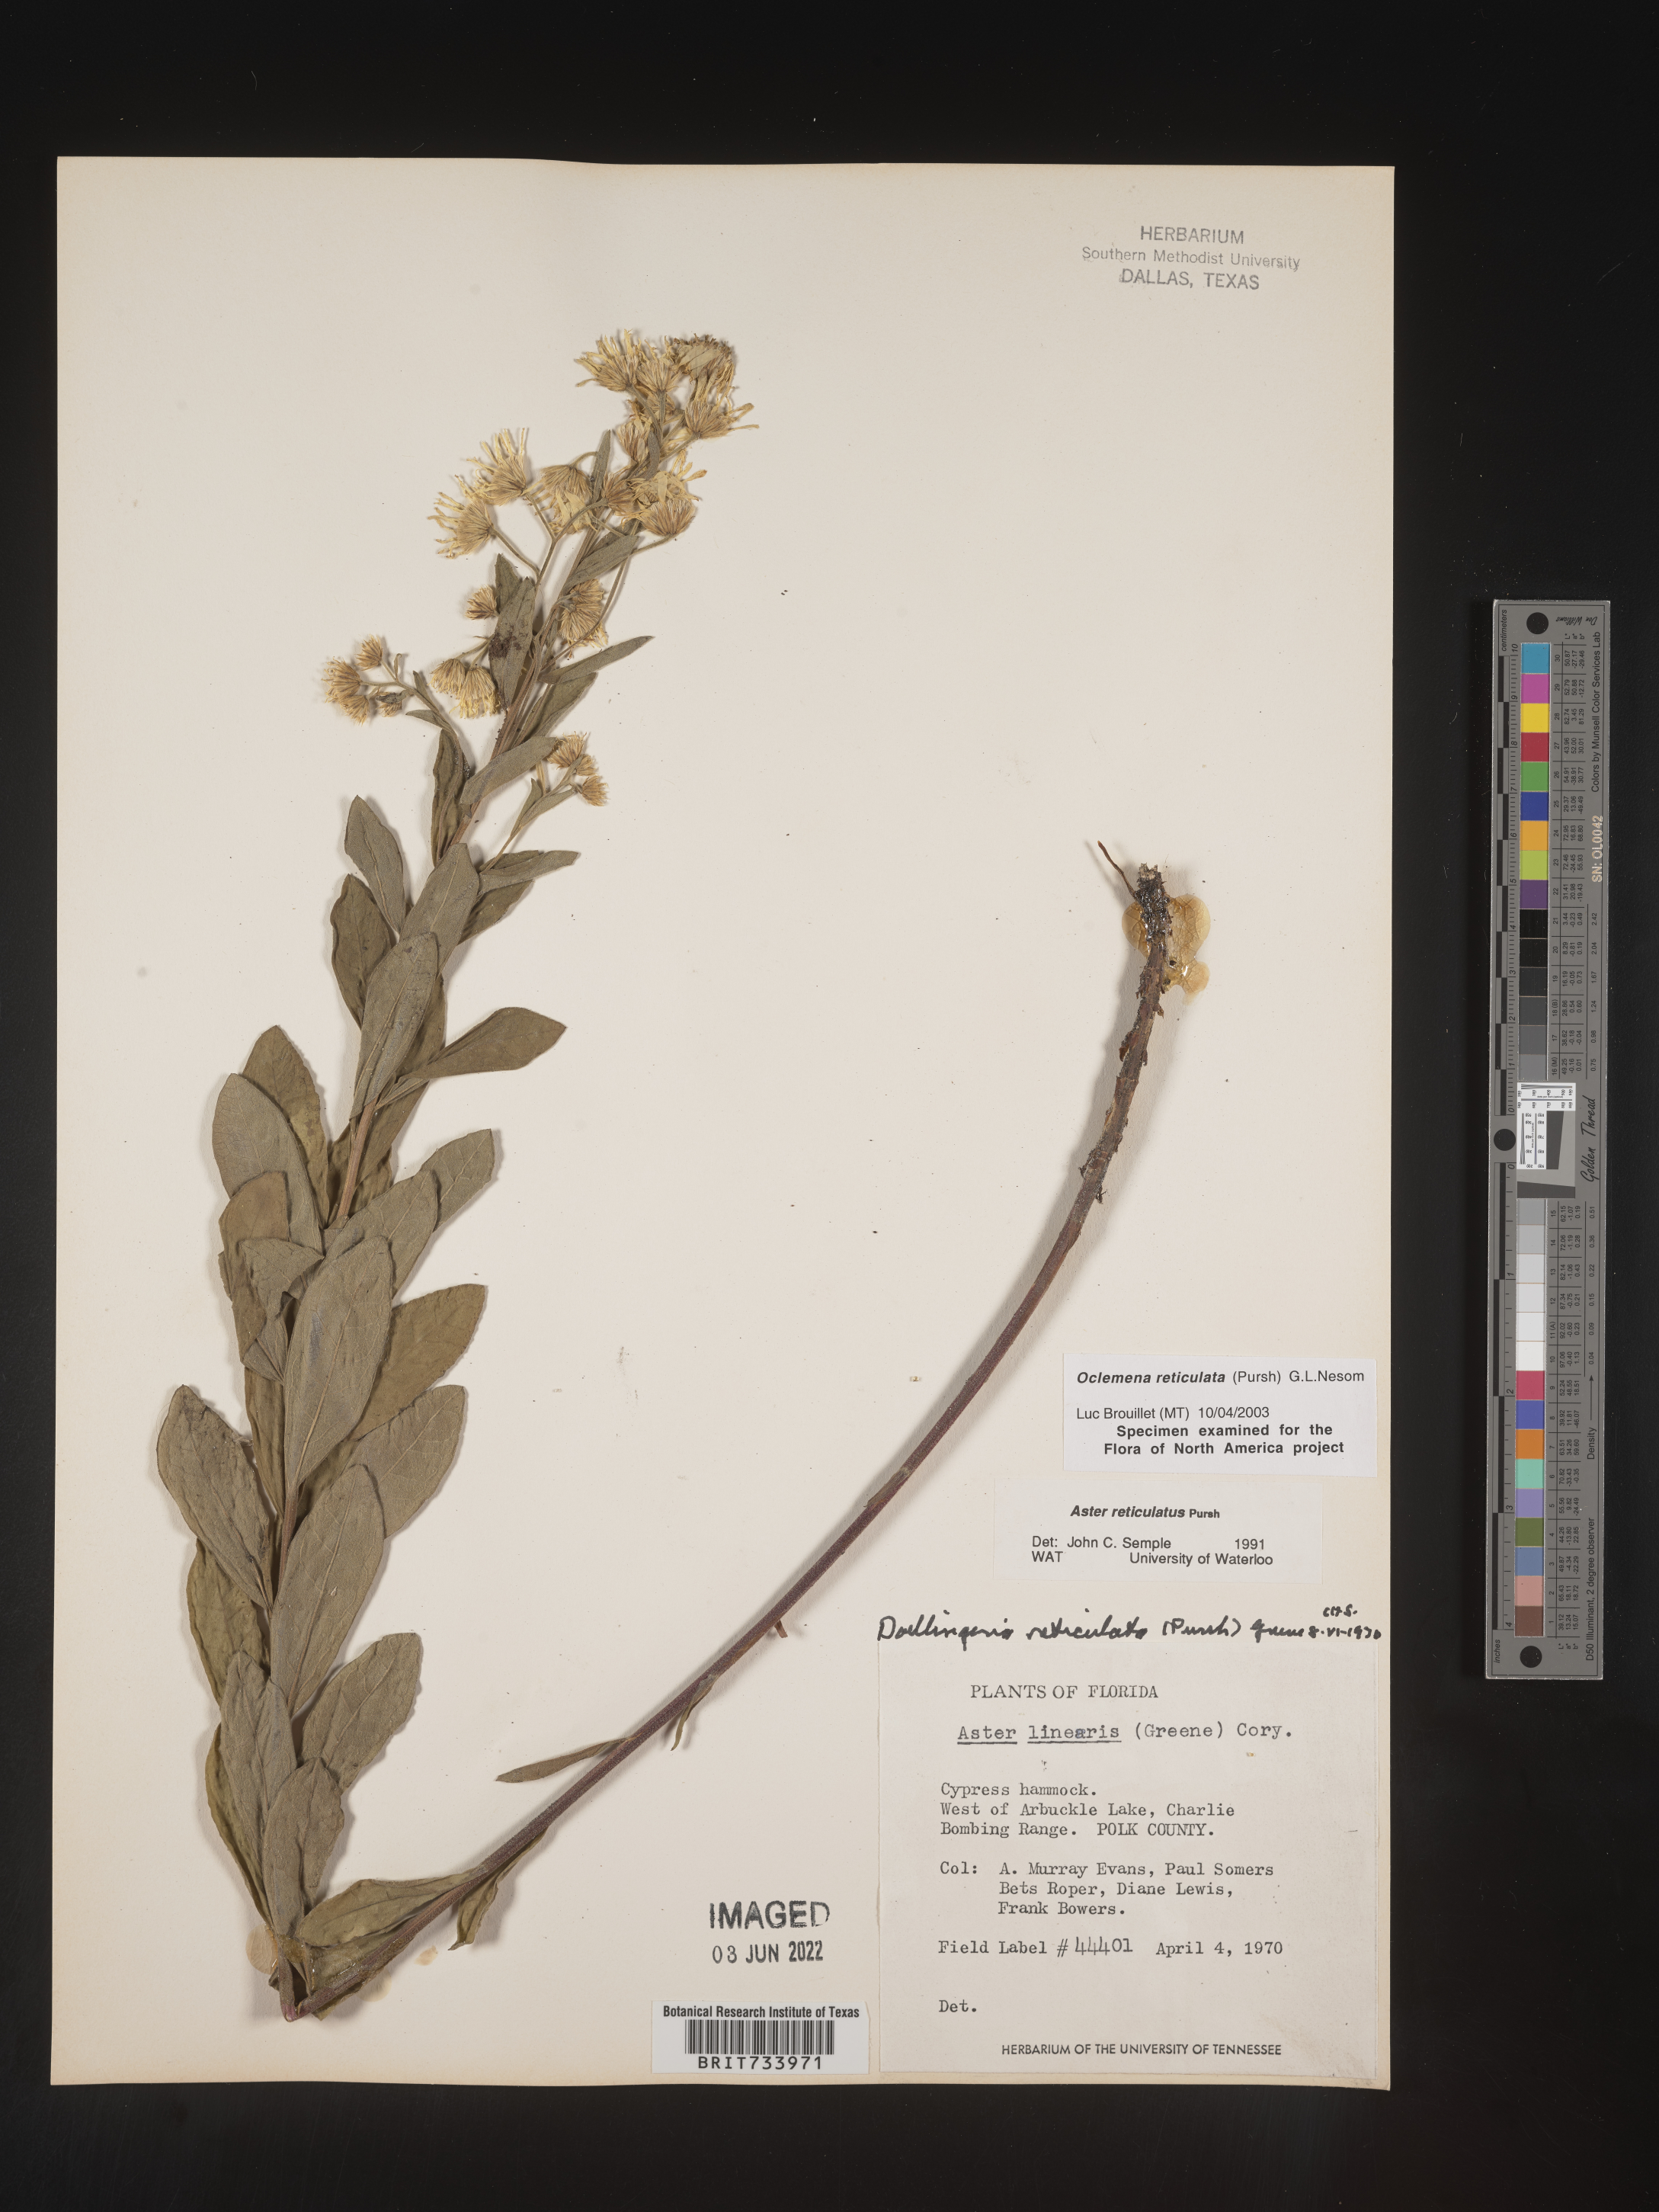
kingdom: Plantae
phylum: Tracheophyta
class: Magnoliopsida
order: Asterales
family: Asteraceae
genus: Oclemena
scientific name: Oclemena reticulata
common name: Pinebarren aster
